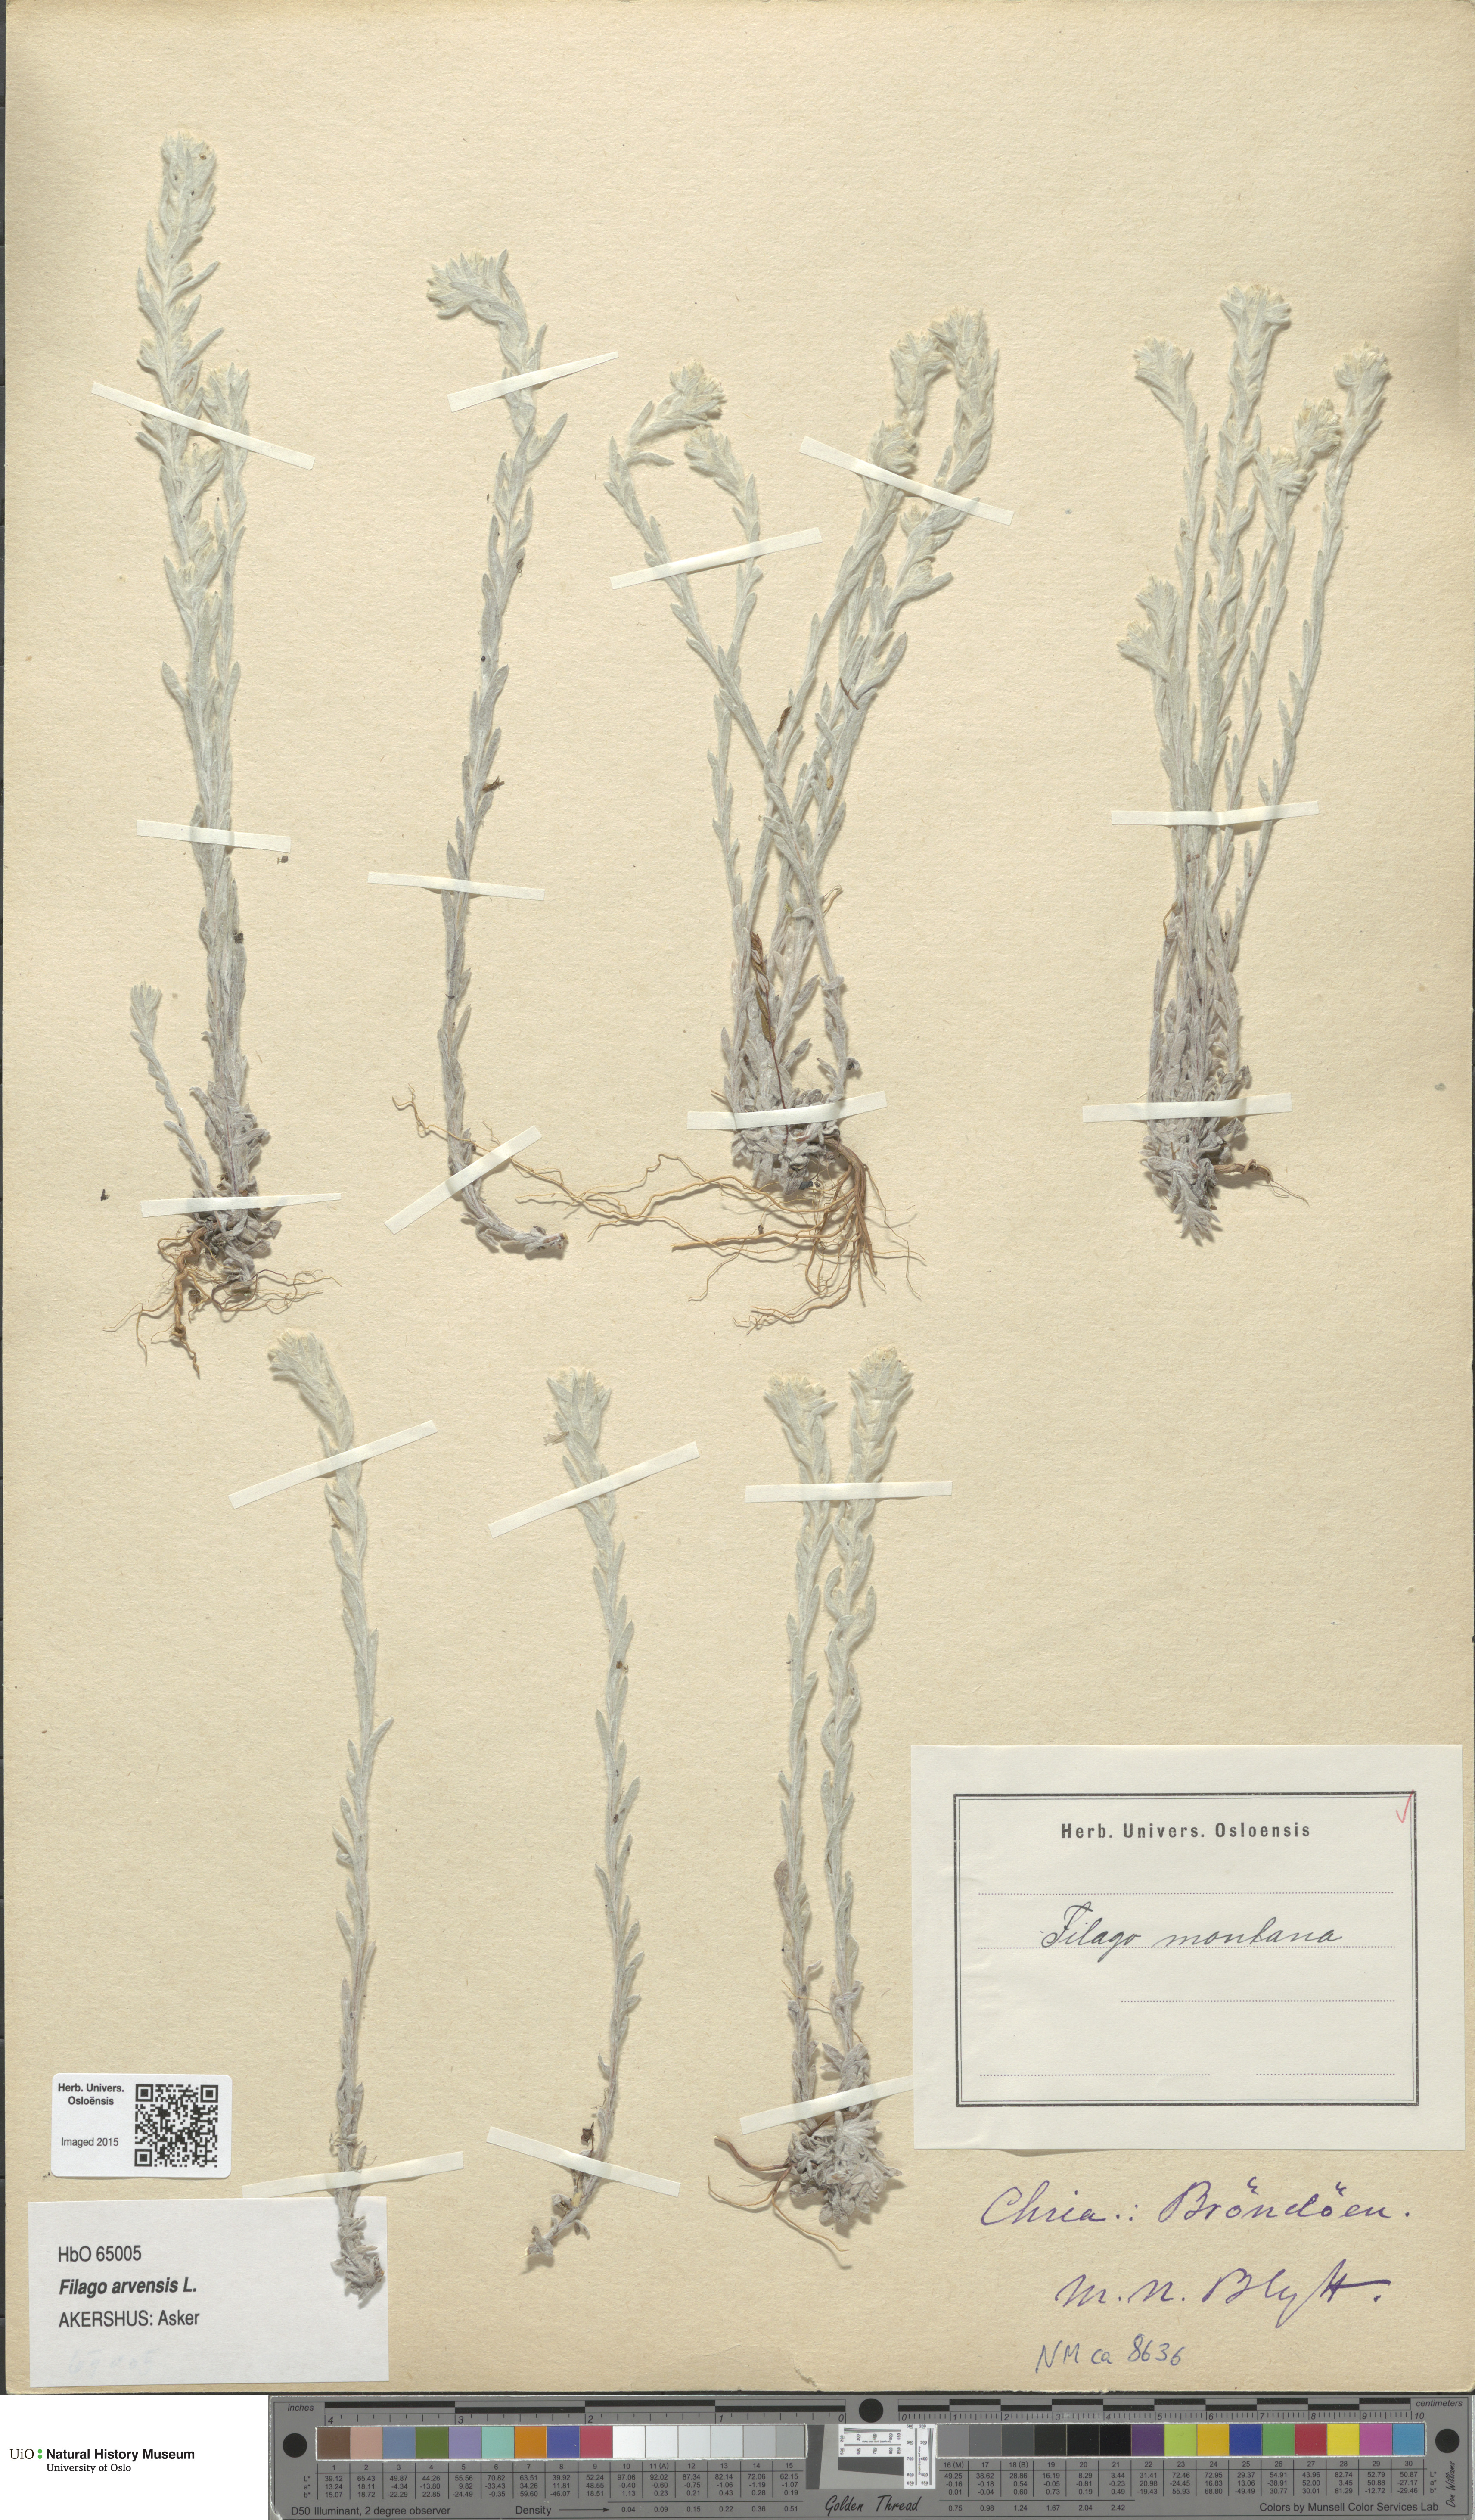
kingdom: Plantae
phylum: Tracheophyta
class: Magnoliopsida
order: Asterales
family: Asteraceae
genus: Filago
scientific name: Filago arvensis
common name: Field cudweed
